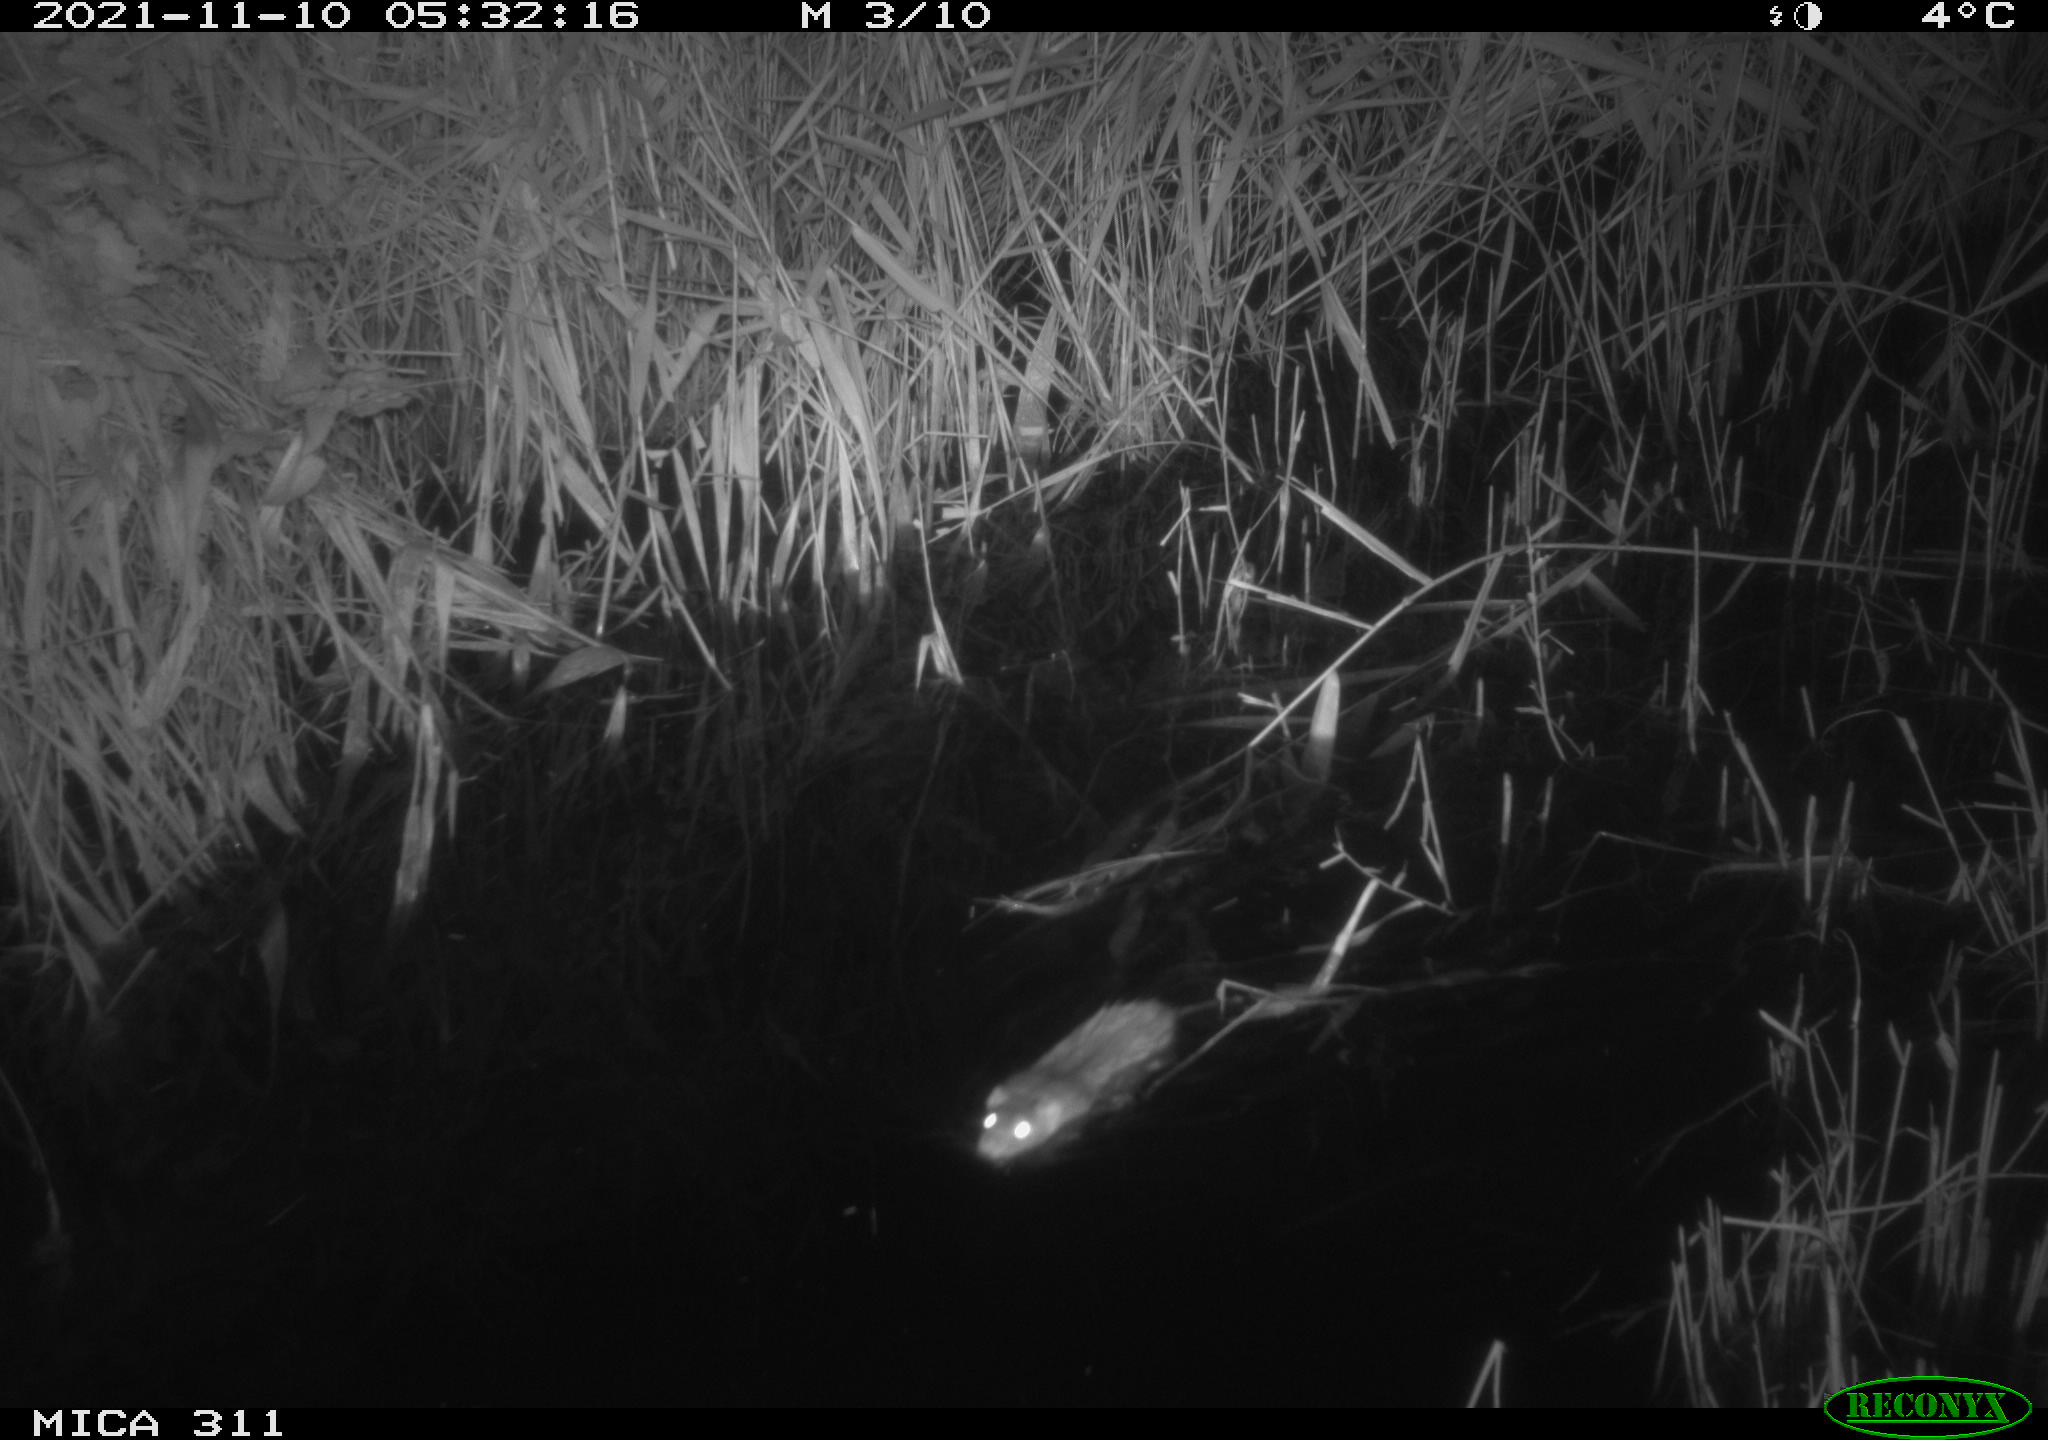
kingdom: Animalia
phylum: Chordata
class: Mammalia
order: Rodentia
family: Muridae
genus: Rattus
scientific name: Rattus norvegicus
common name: Brown rat
